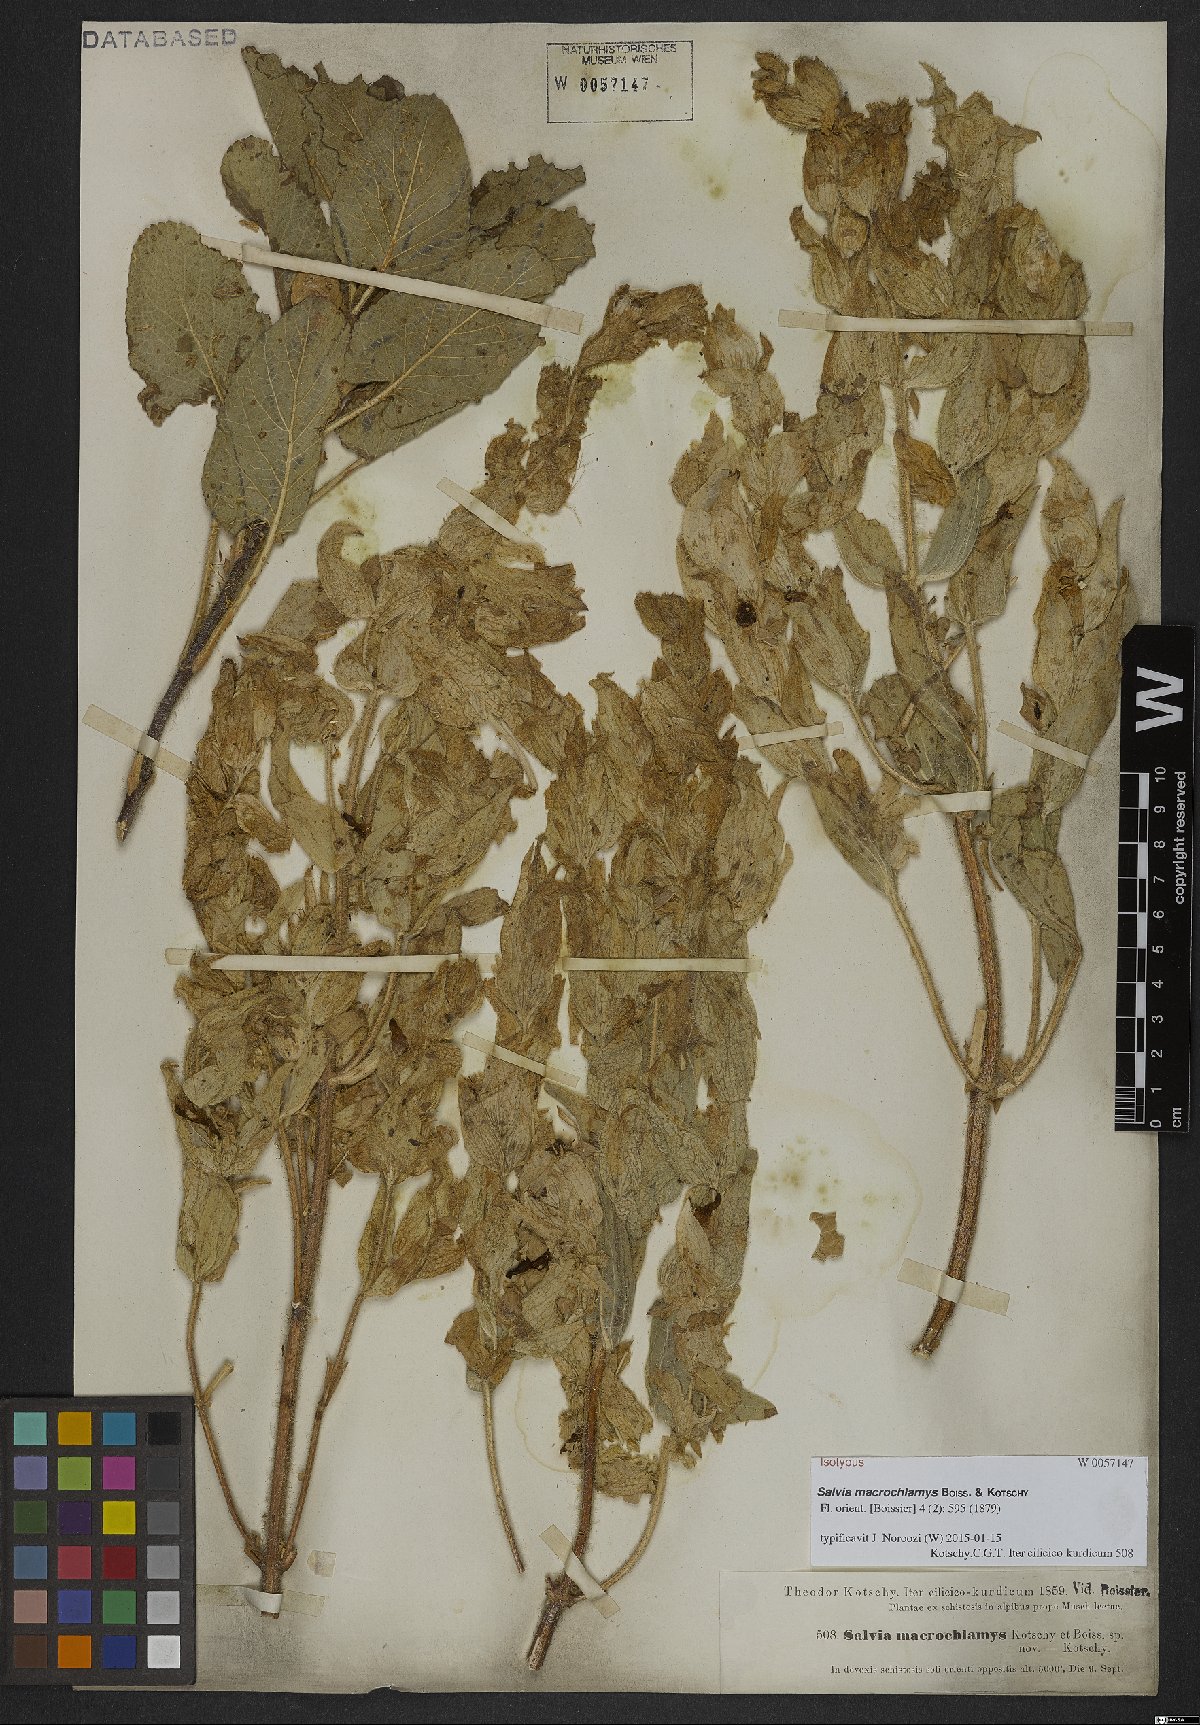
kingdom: Plantae
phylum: Tracheophyta
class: Magnoliopsida
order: Lamiales
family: Lamiaceae
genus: Salvia
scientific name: Salvia macrochlamys
